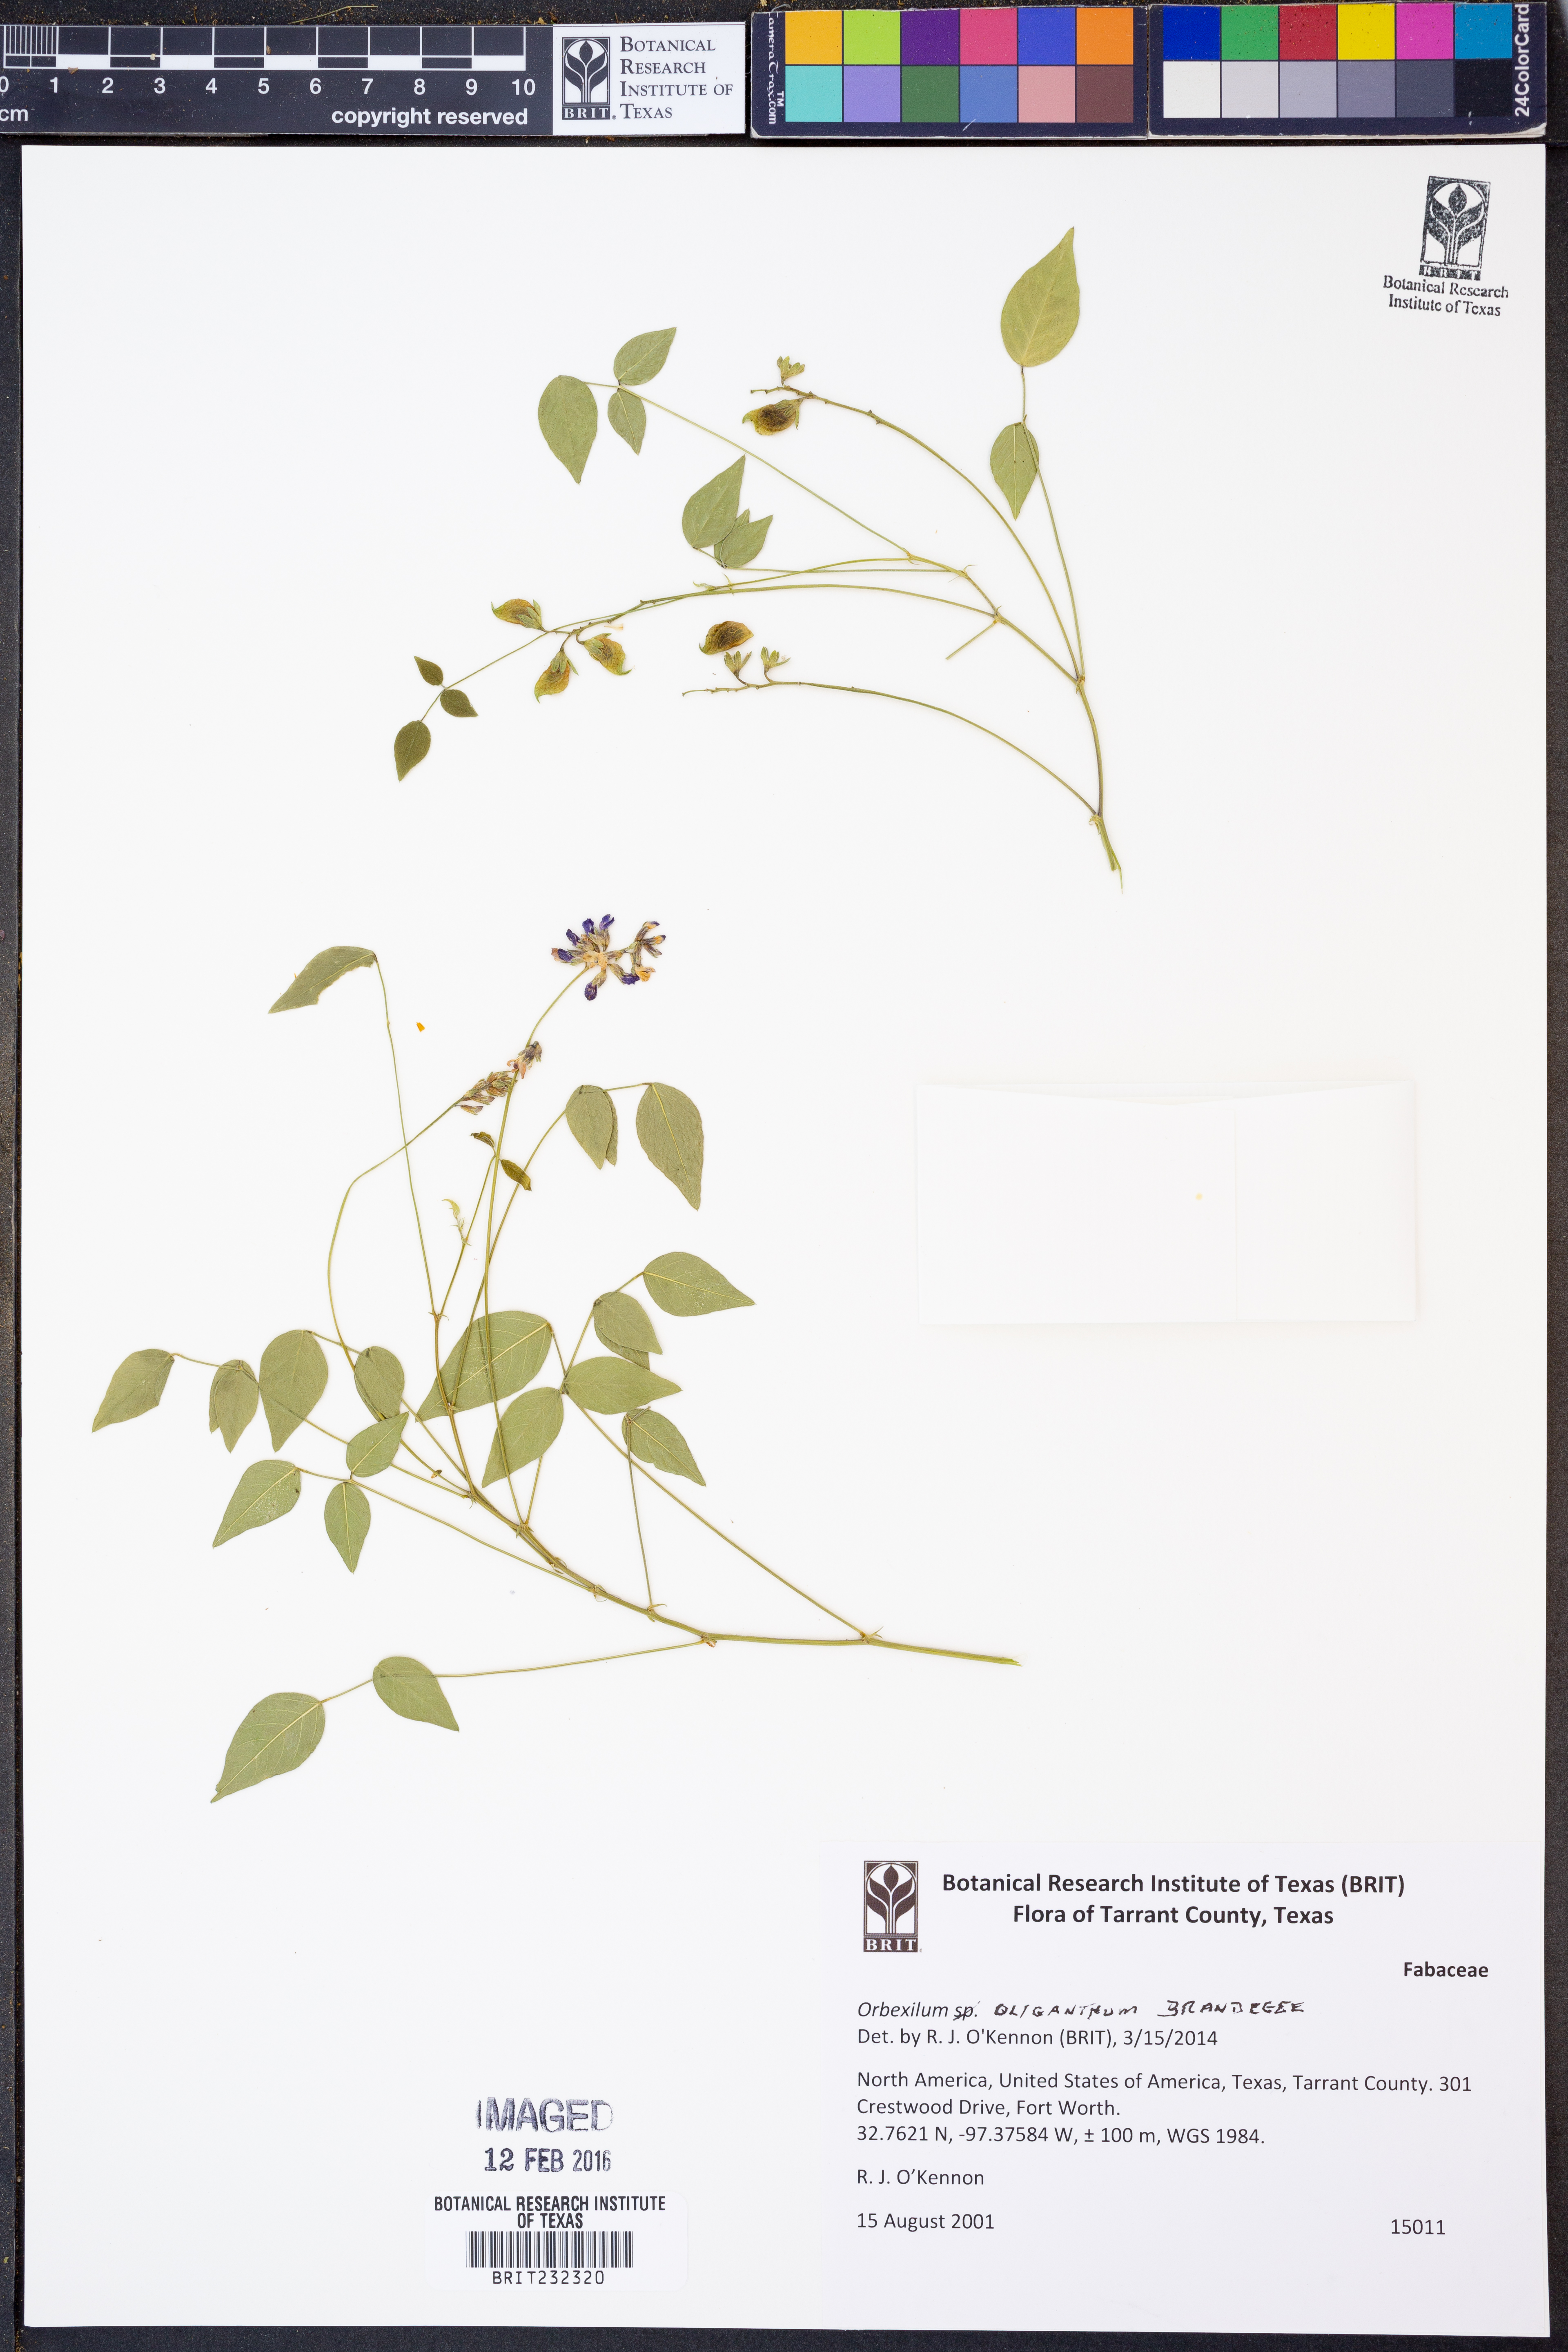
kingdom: Plantae
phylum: Tracheophyta
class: Magnoliopsida
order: Fabales
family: Fabaceae
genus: Orbexilum
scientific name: Orbexilum oliganthum
